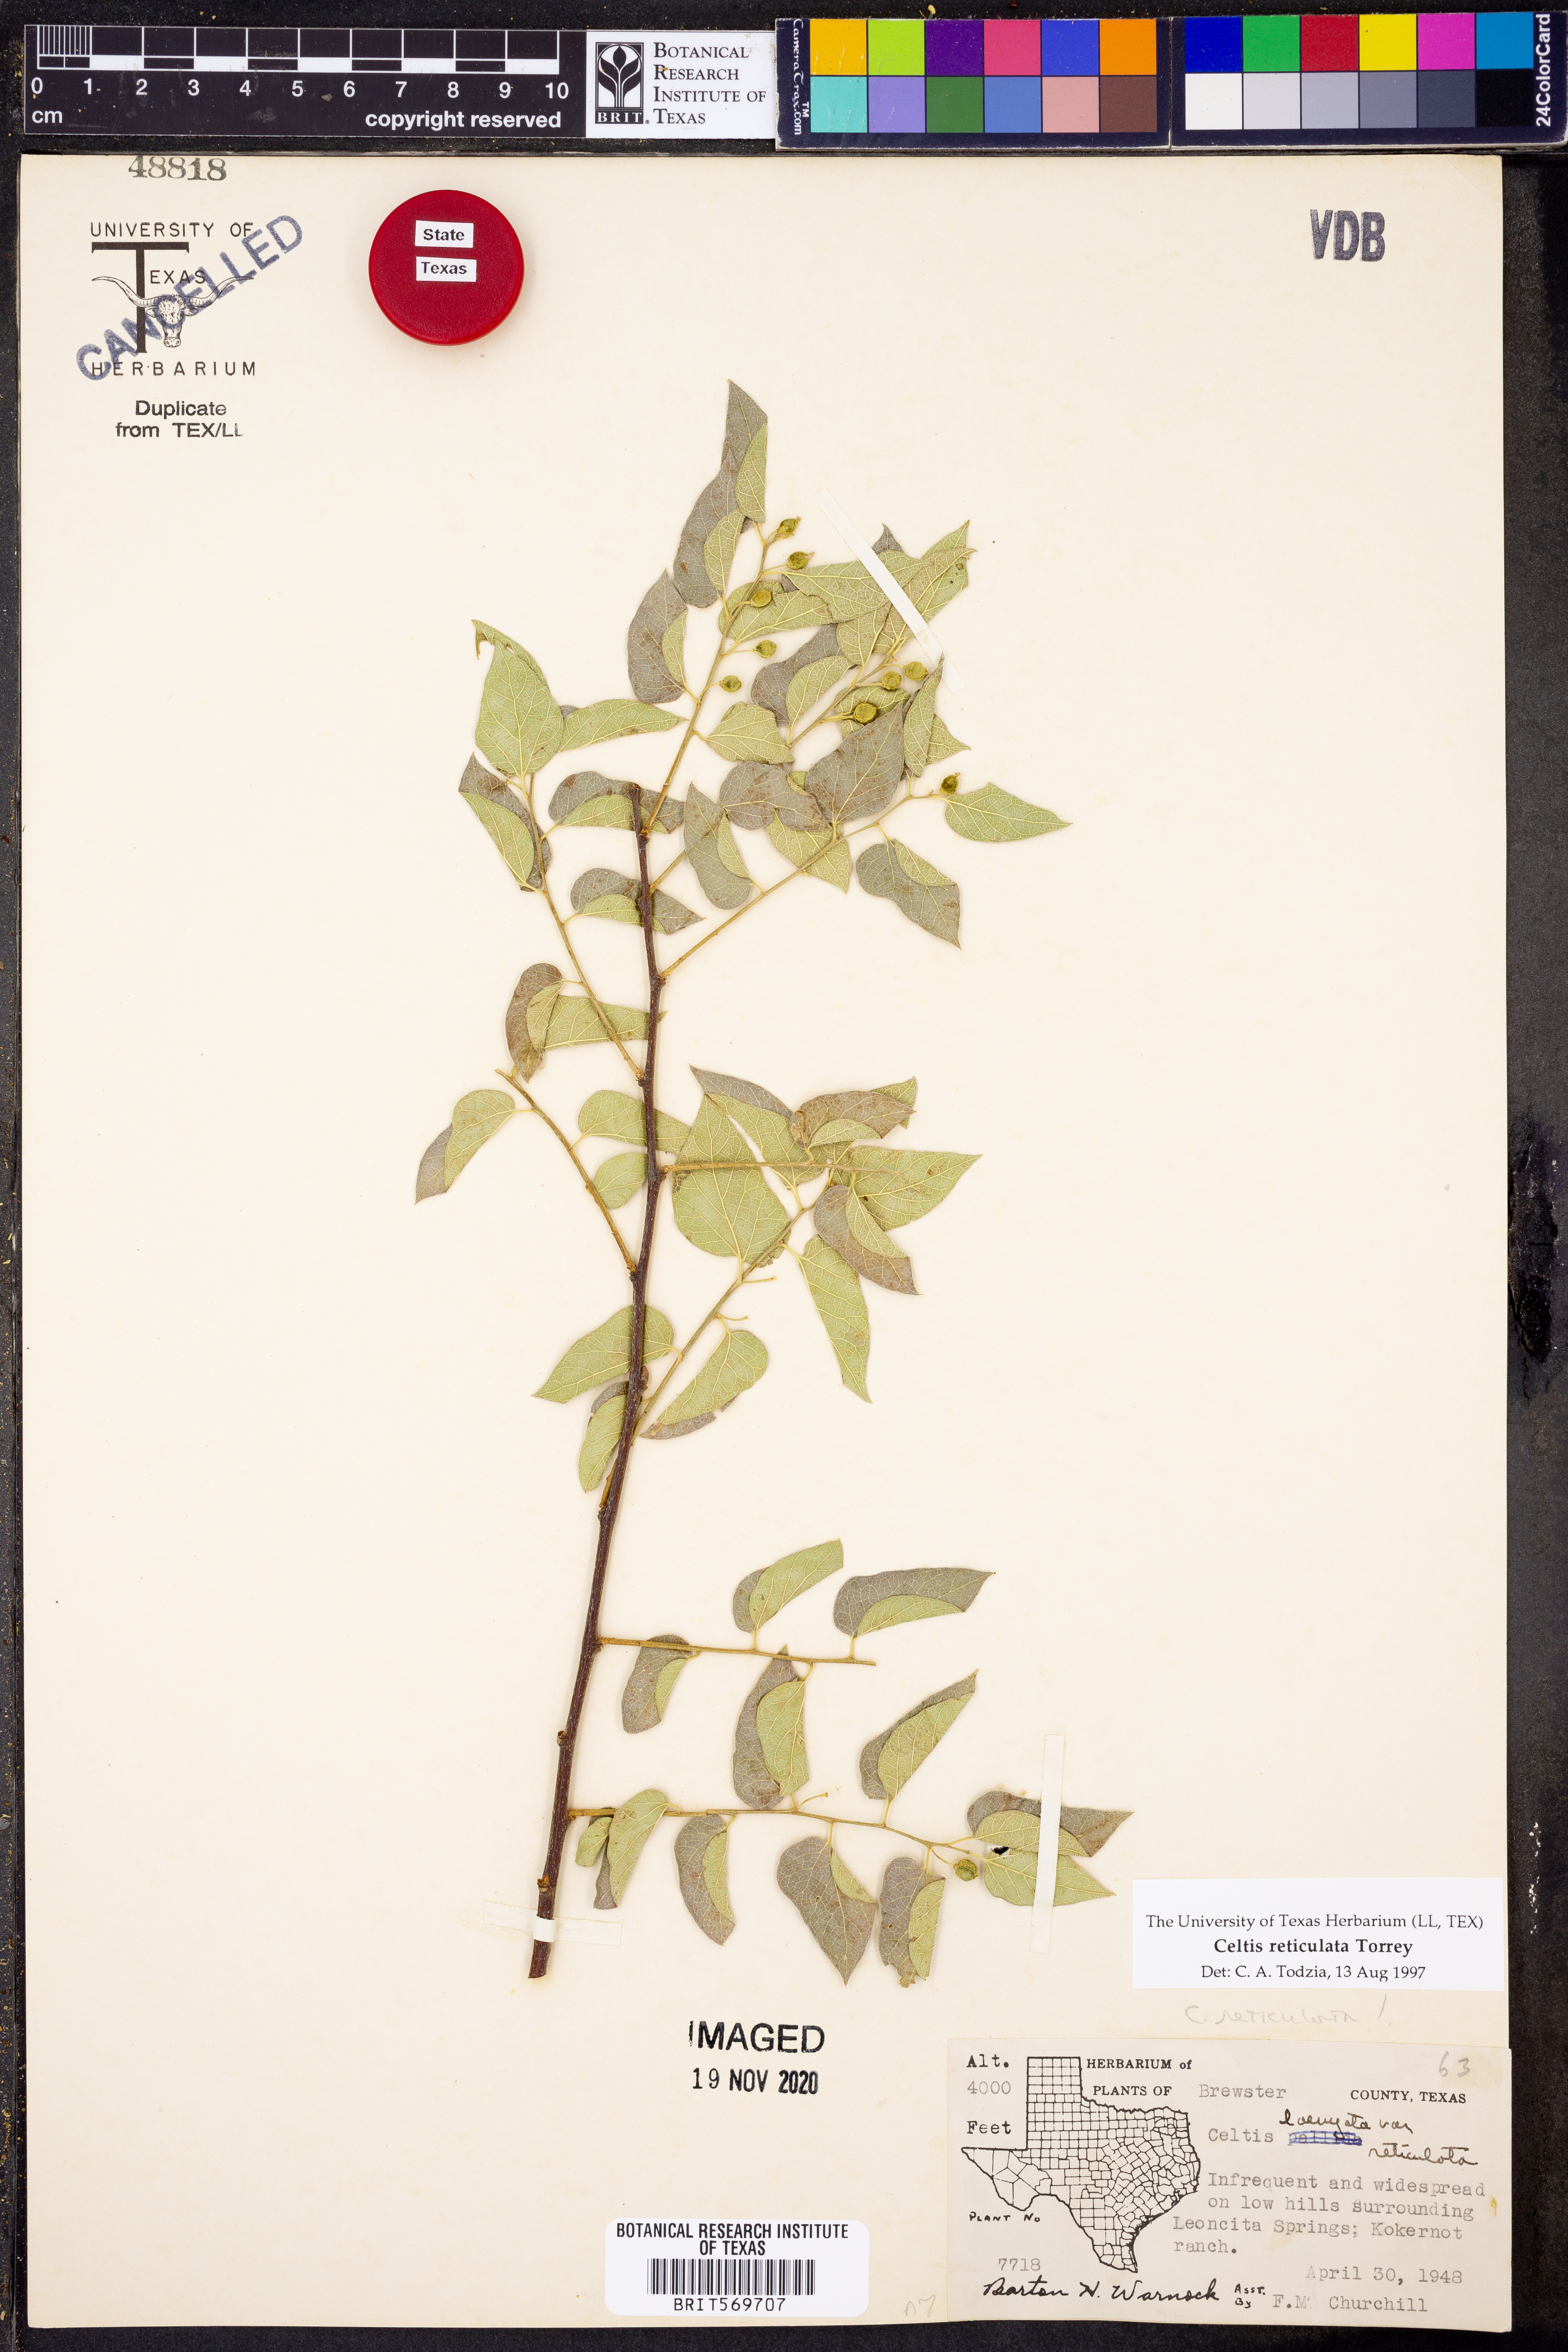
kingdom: Plantae
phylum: Tracheophyta
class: Magnoliopsida
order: Rosales
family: Cannabaceae
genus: Celtis
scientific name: Celtis reticulata
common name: Netleaf hackberry
